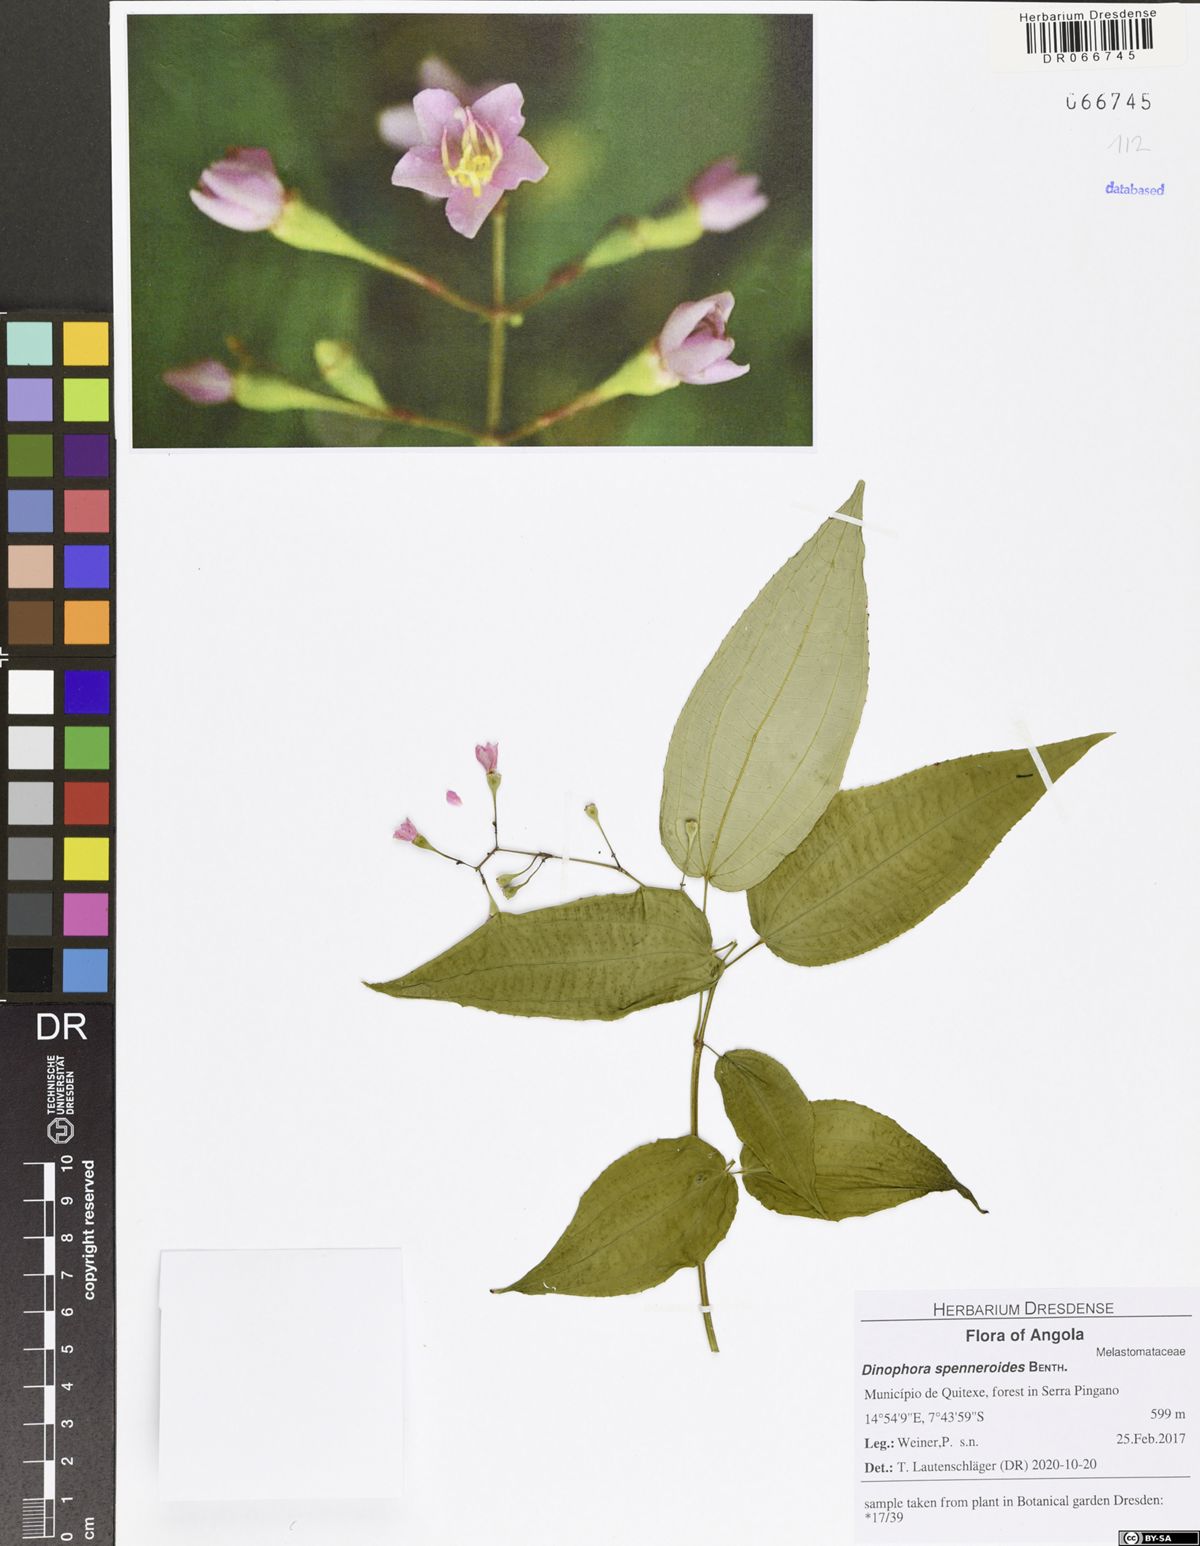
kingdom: Plantae
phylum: Tracheophyta
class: Magnoliopsida
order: Myrtales
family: Melastomataceae
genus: Dinophora
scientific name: Dinophora spenneroides
